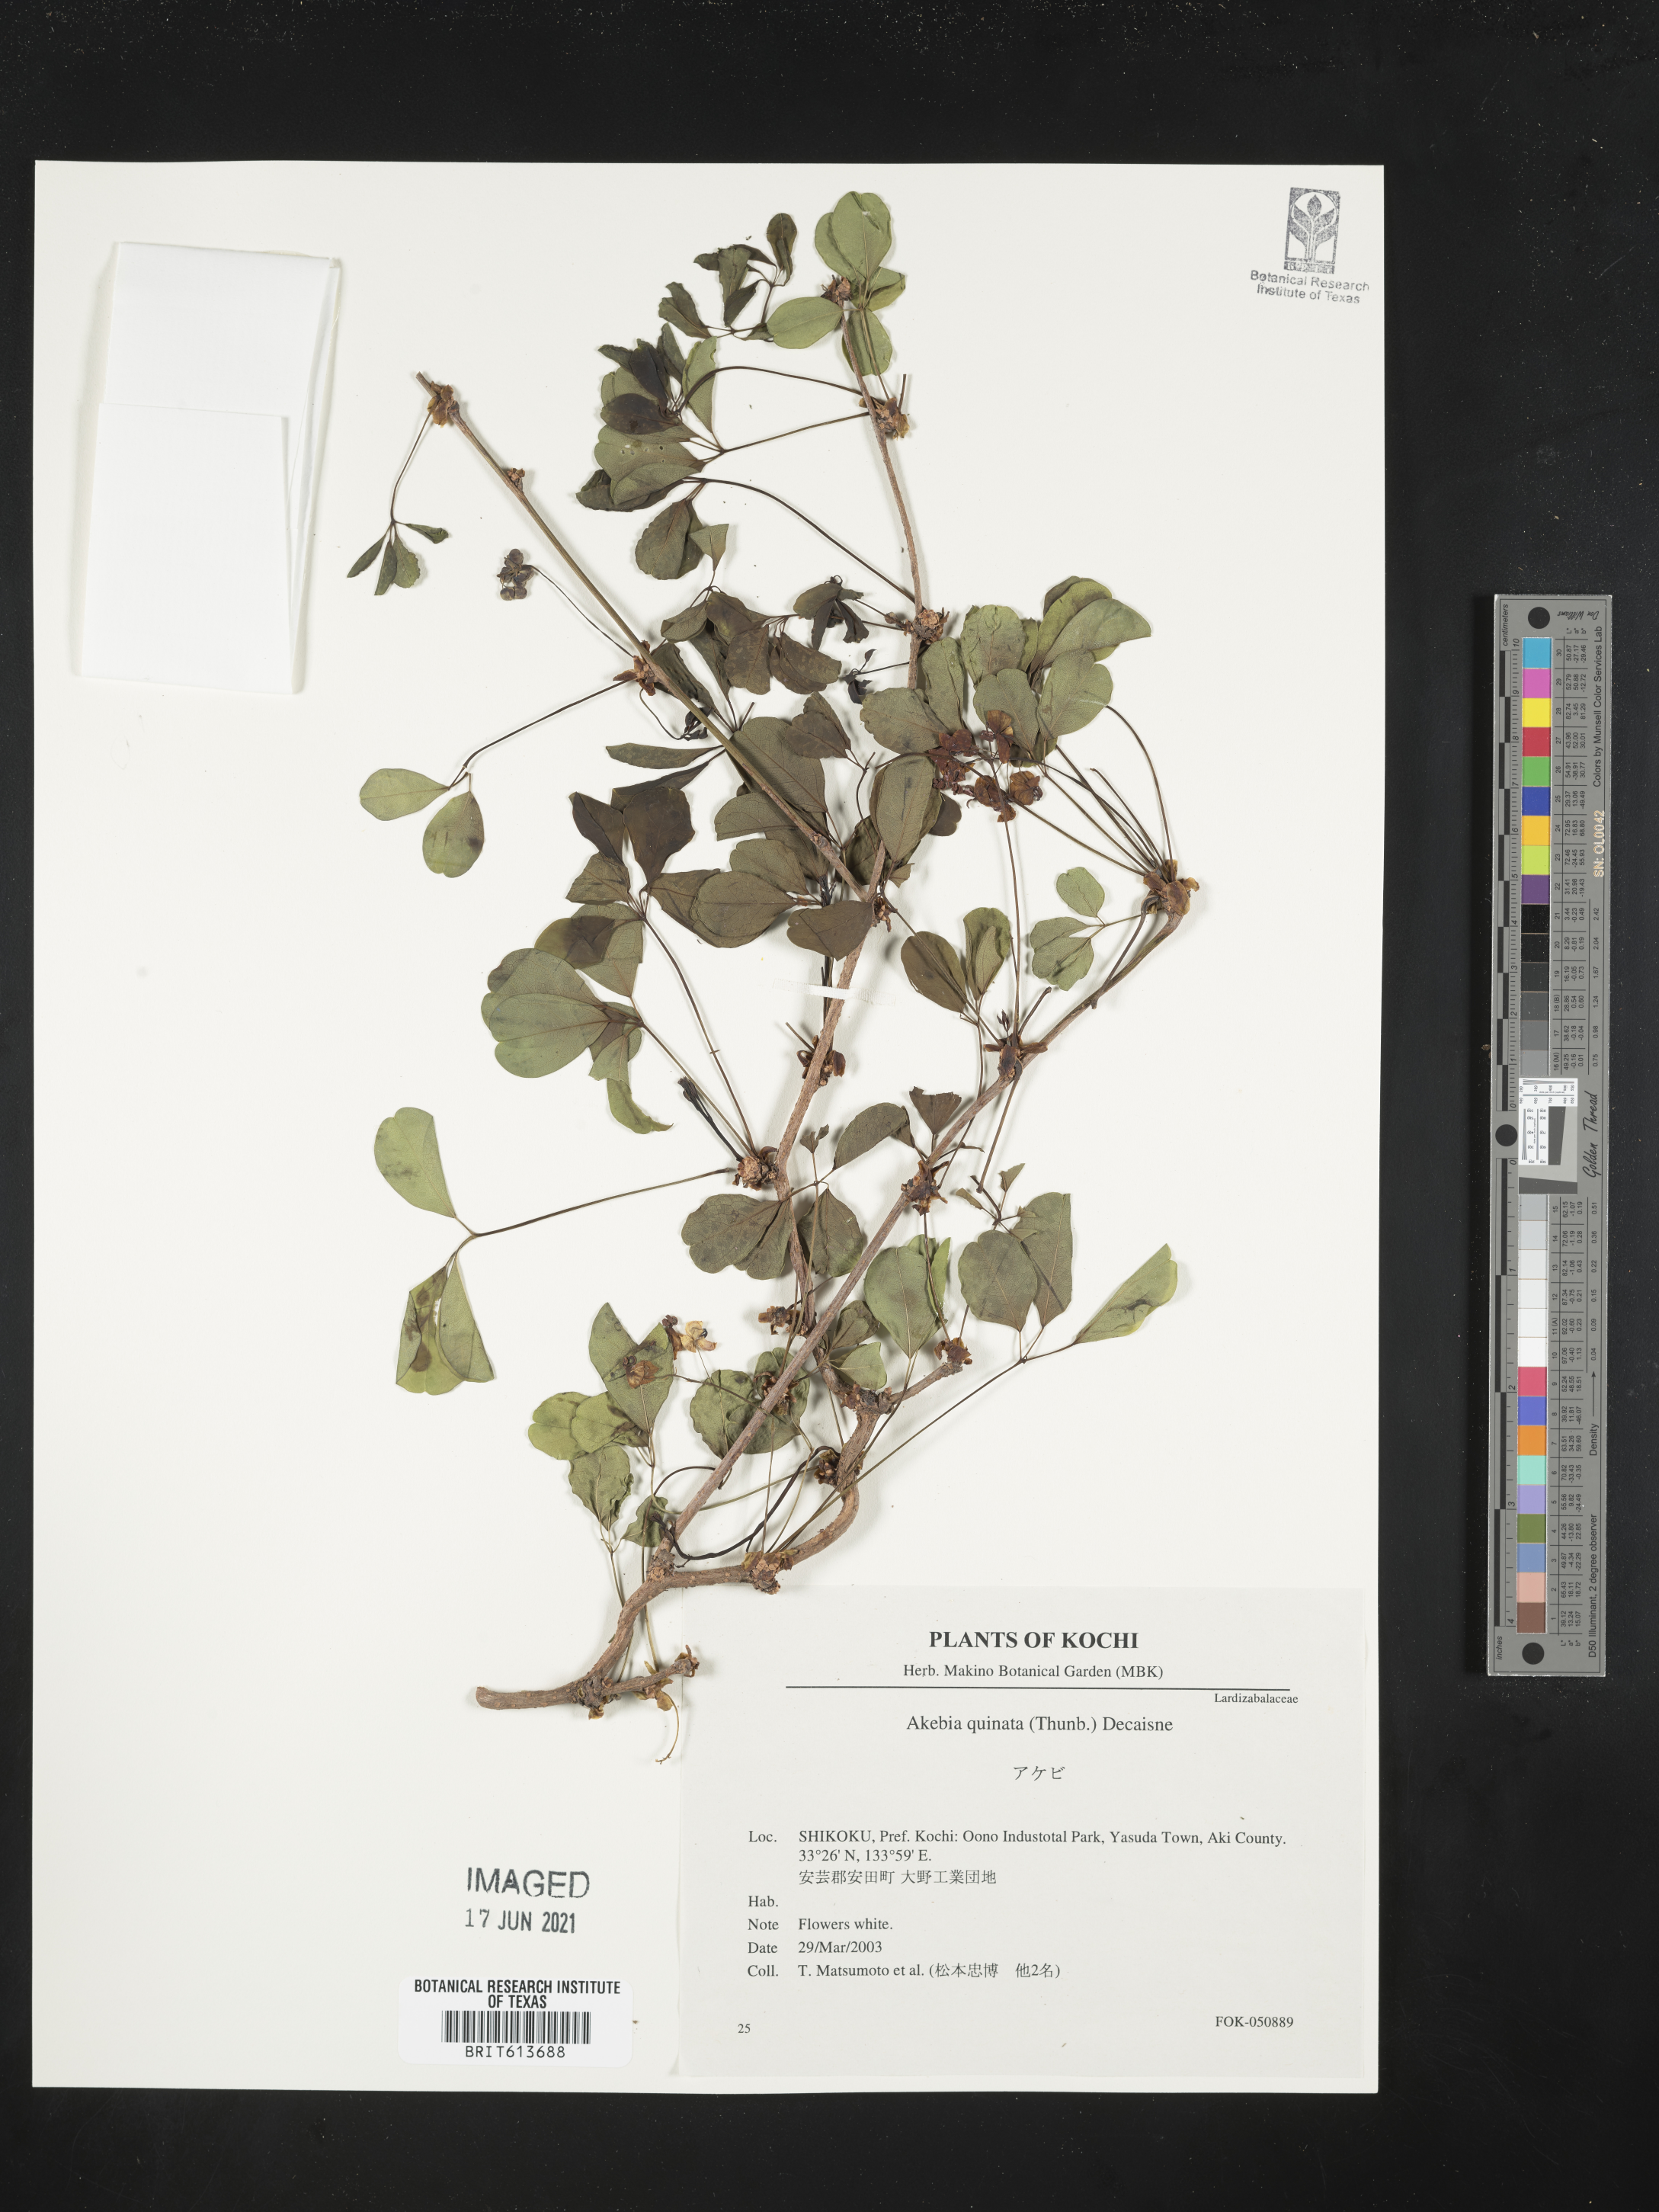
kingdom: Plantae
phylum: Tracheophyta
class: Magnoliopsida
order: Ranunculales
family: Lardizabalaceae
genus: Akebia
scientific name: Akebia quinata
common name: Five-leaf akebia
